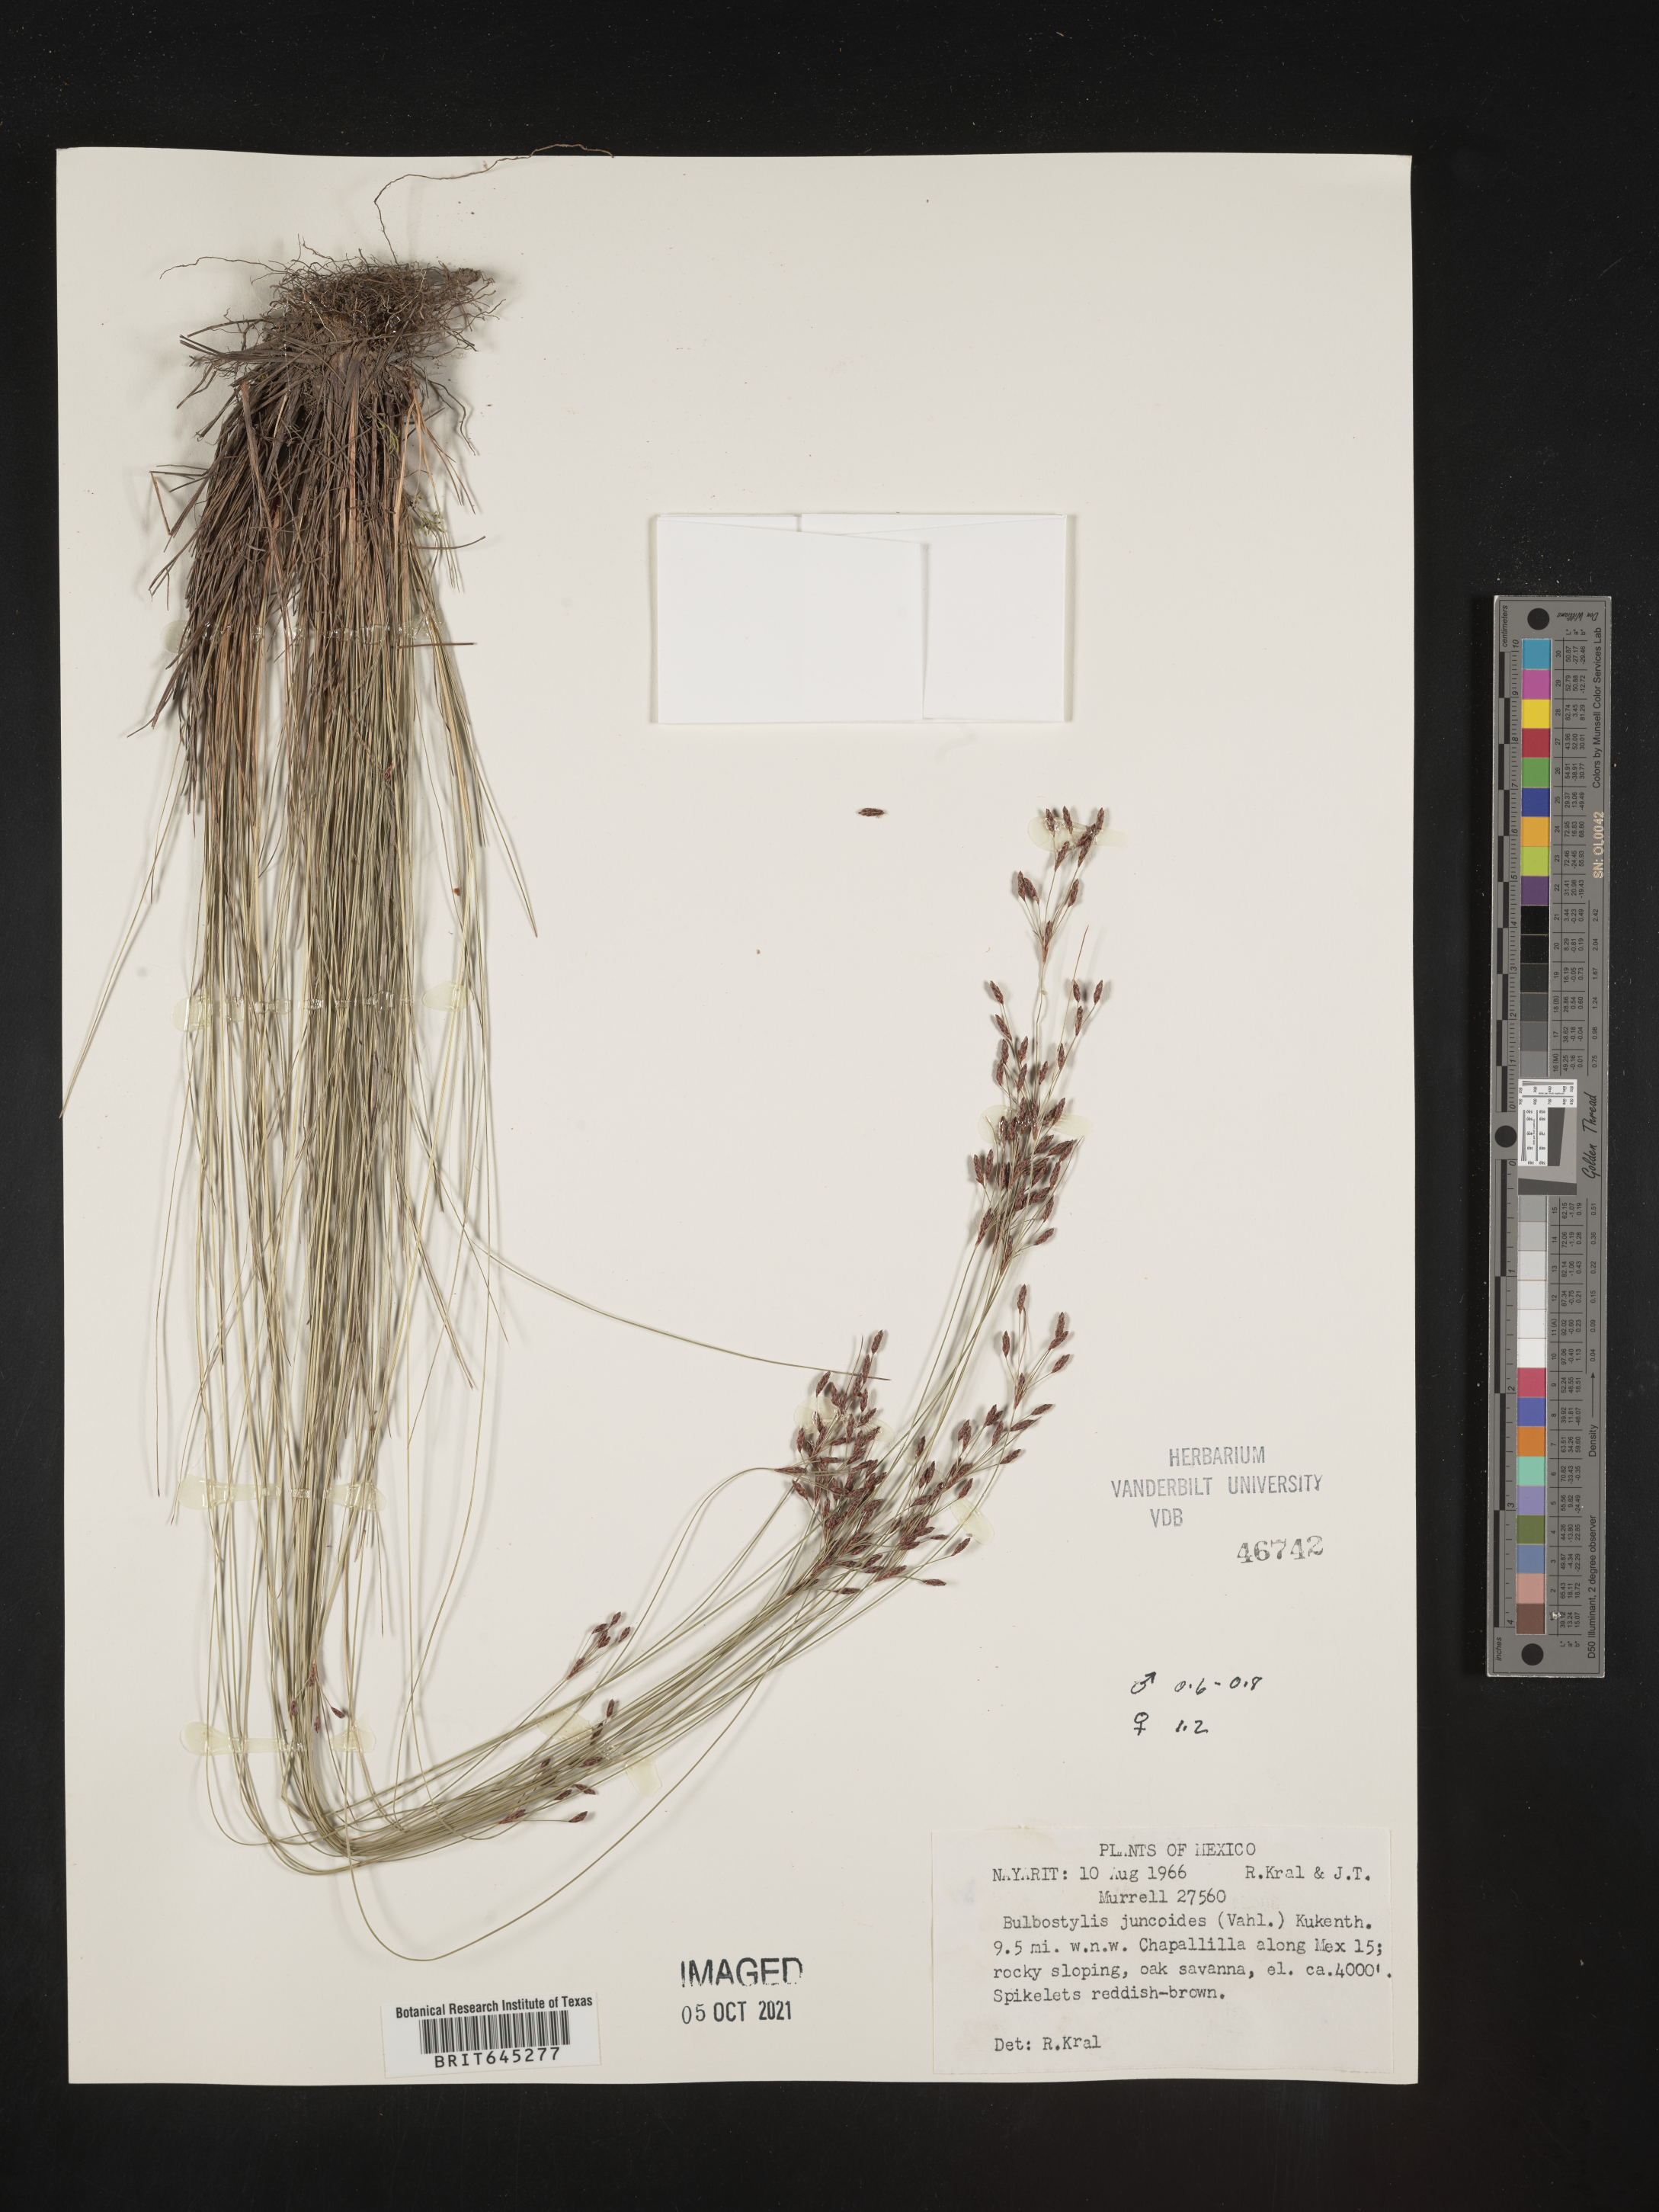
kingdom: Plantae
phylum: Tracheophyta
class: Liliopsida
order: Poales
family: Cyperaceae
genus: Bulbostylis
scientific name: Bulbostylis juncoides
